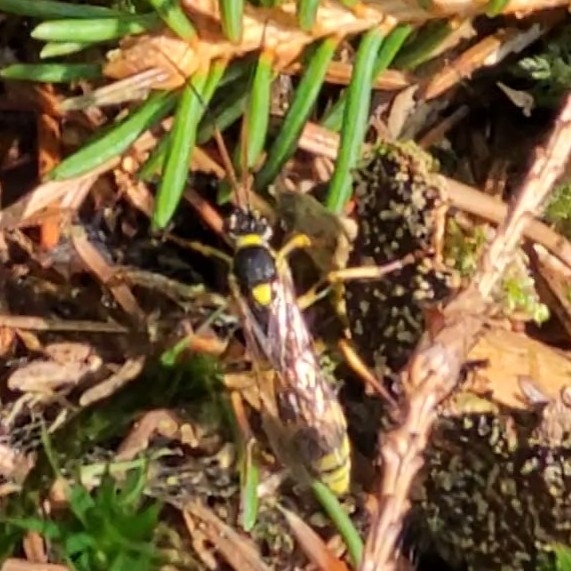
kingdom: Animalia
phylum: Arthropoda
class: Insecta
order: Hymenoptera
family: Ichneumonidae
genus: Amblyteles
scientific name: Amblyteles armatorius
